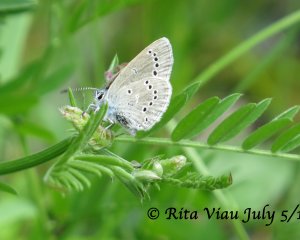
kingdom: Animalia
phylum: Arthropoda
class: Insecta
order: Lepidoptera
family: Lycaenidae
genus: Glaucopsyche
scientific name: Glaucopsyche lygdamus
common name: Silvery Blue
